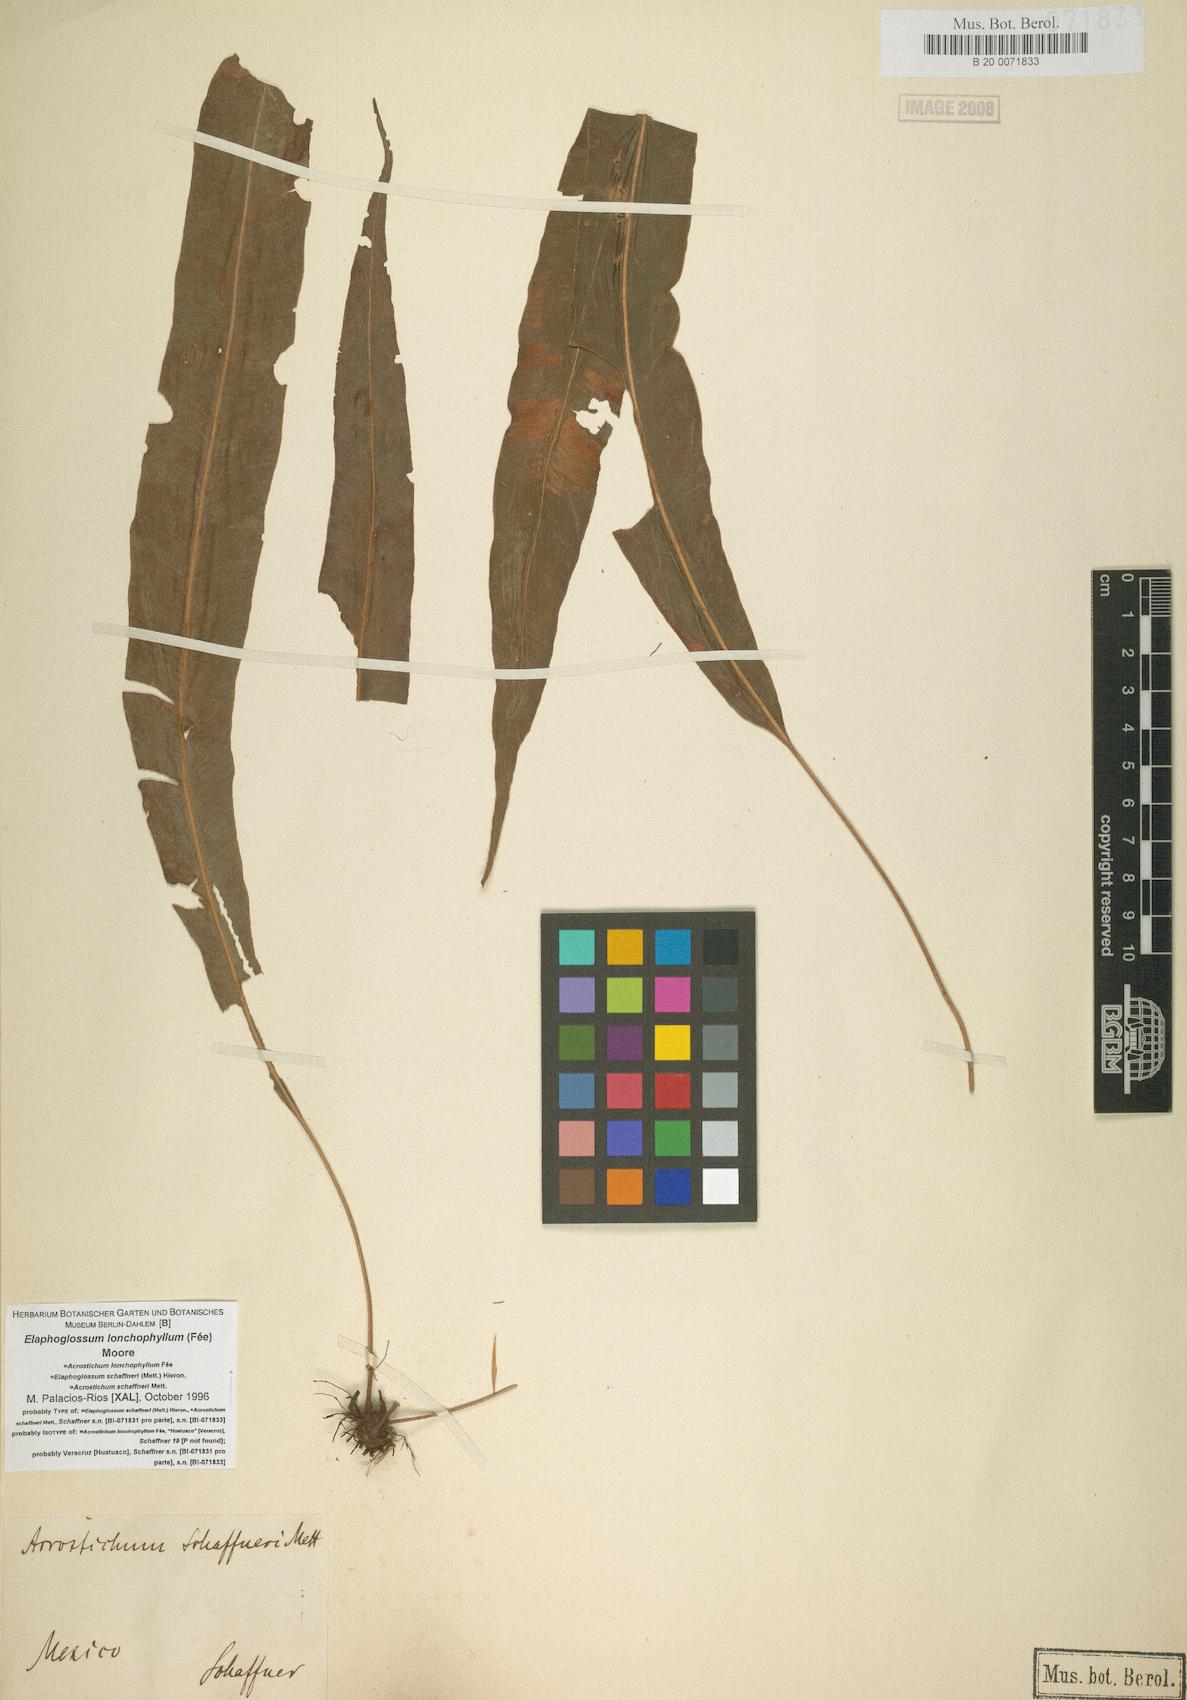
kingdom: Plantae
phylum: Tracheophyta
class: Polypodiopsida
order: Polypodiales
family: Dryopteridaceae
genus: Elaphoglossum
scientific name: Elaphoglossum lonchophyllum
